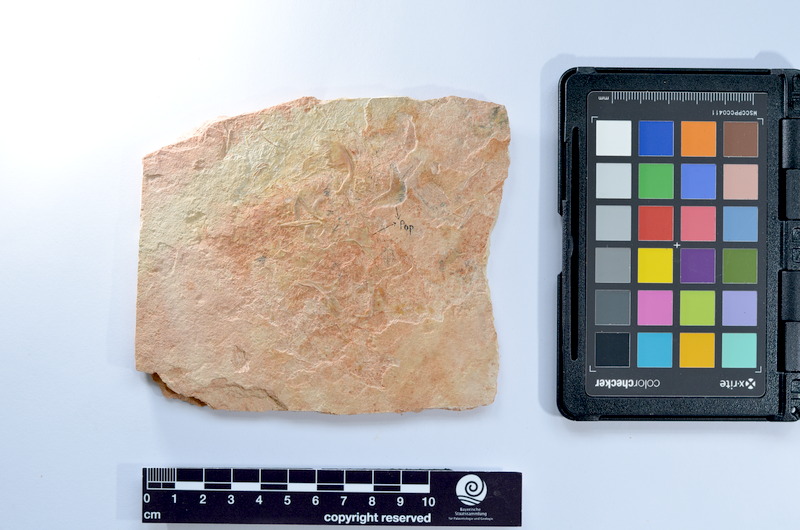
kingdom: Animalia
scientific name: Animalia
